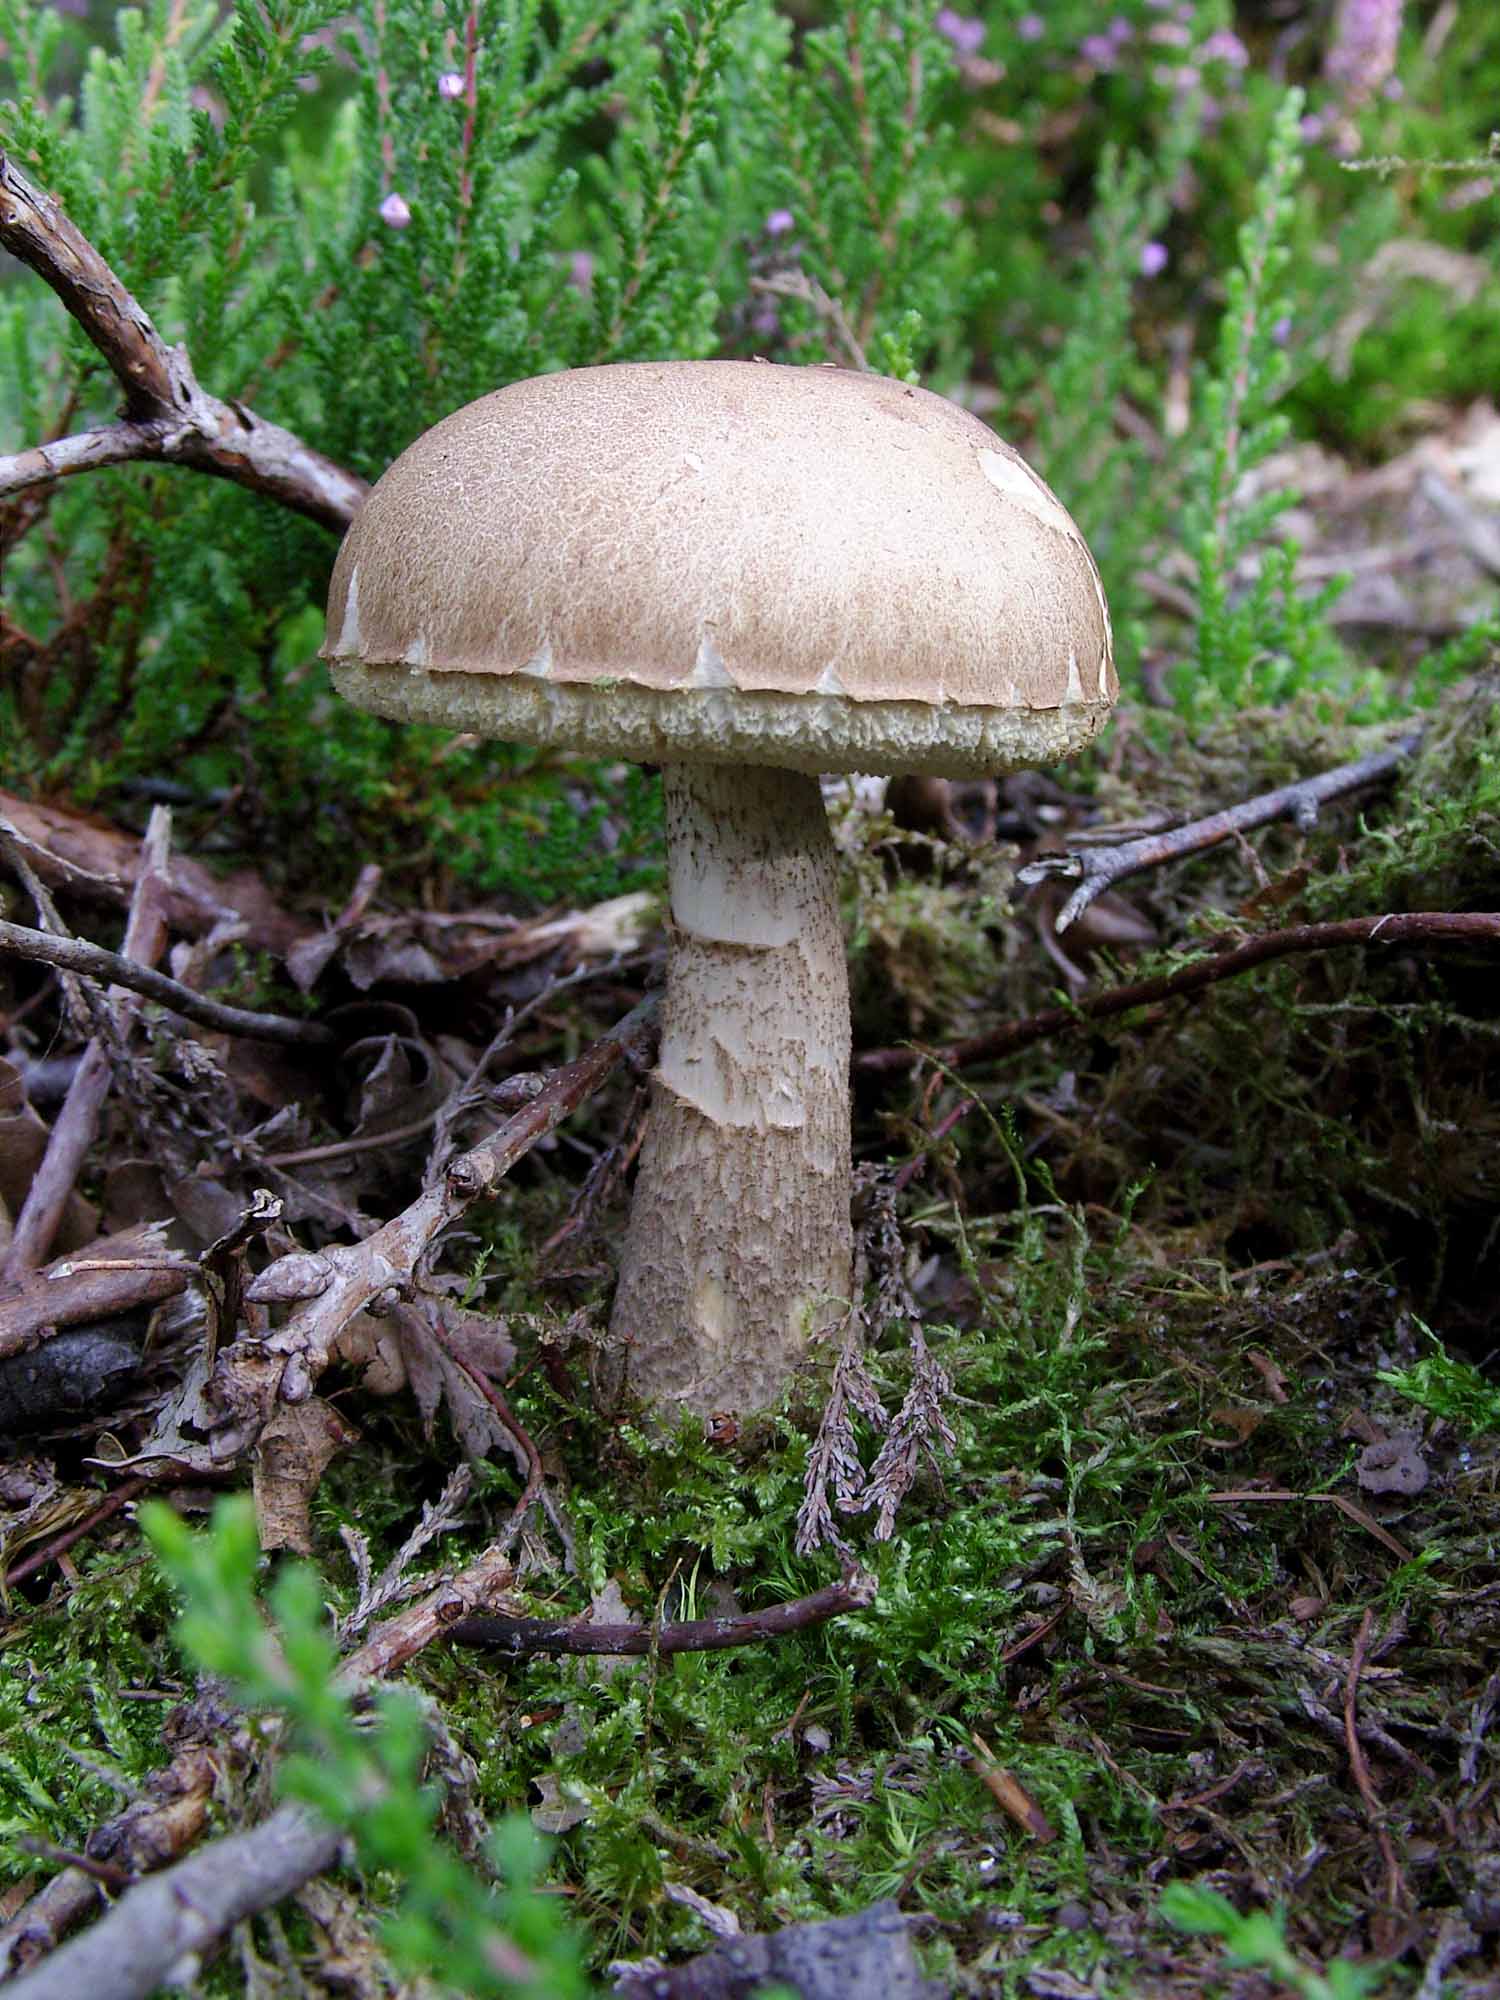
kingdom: Fungi
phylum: Basidiomycota
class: Agaricomycetes
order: Boletales
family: Boletaceae
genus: Leccinum
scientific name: Leccinum cyaneobasileucum
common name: almindelig skælrørhat
